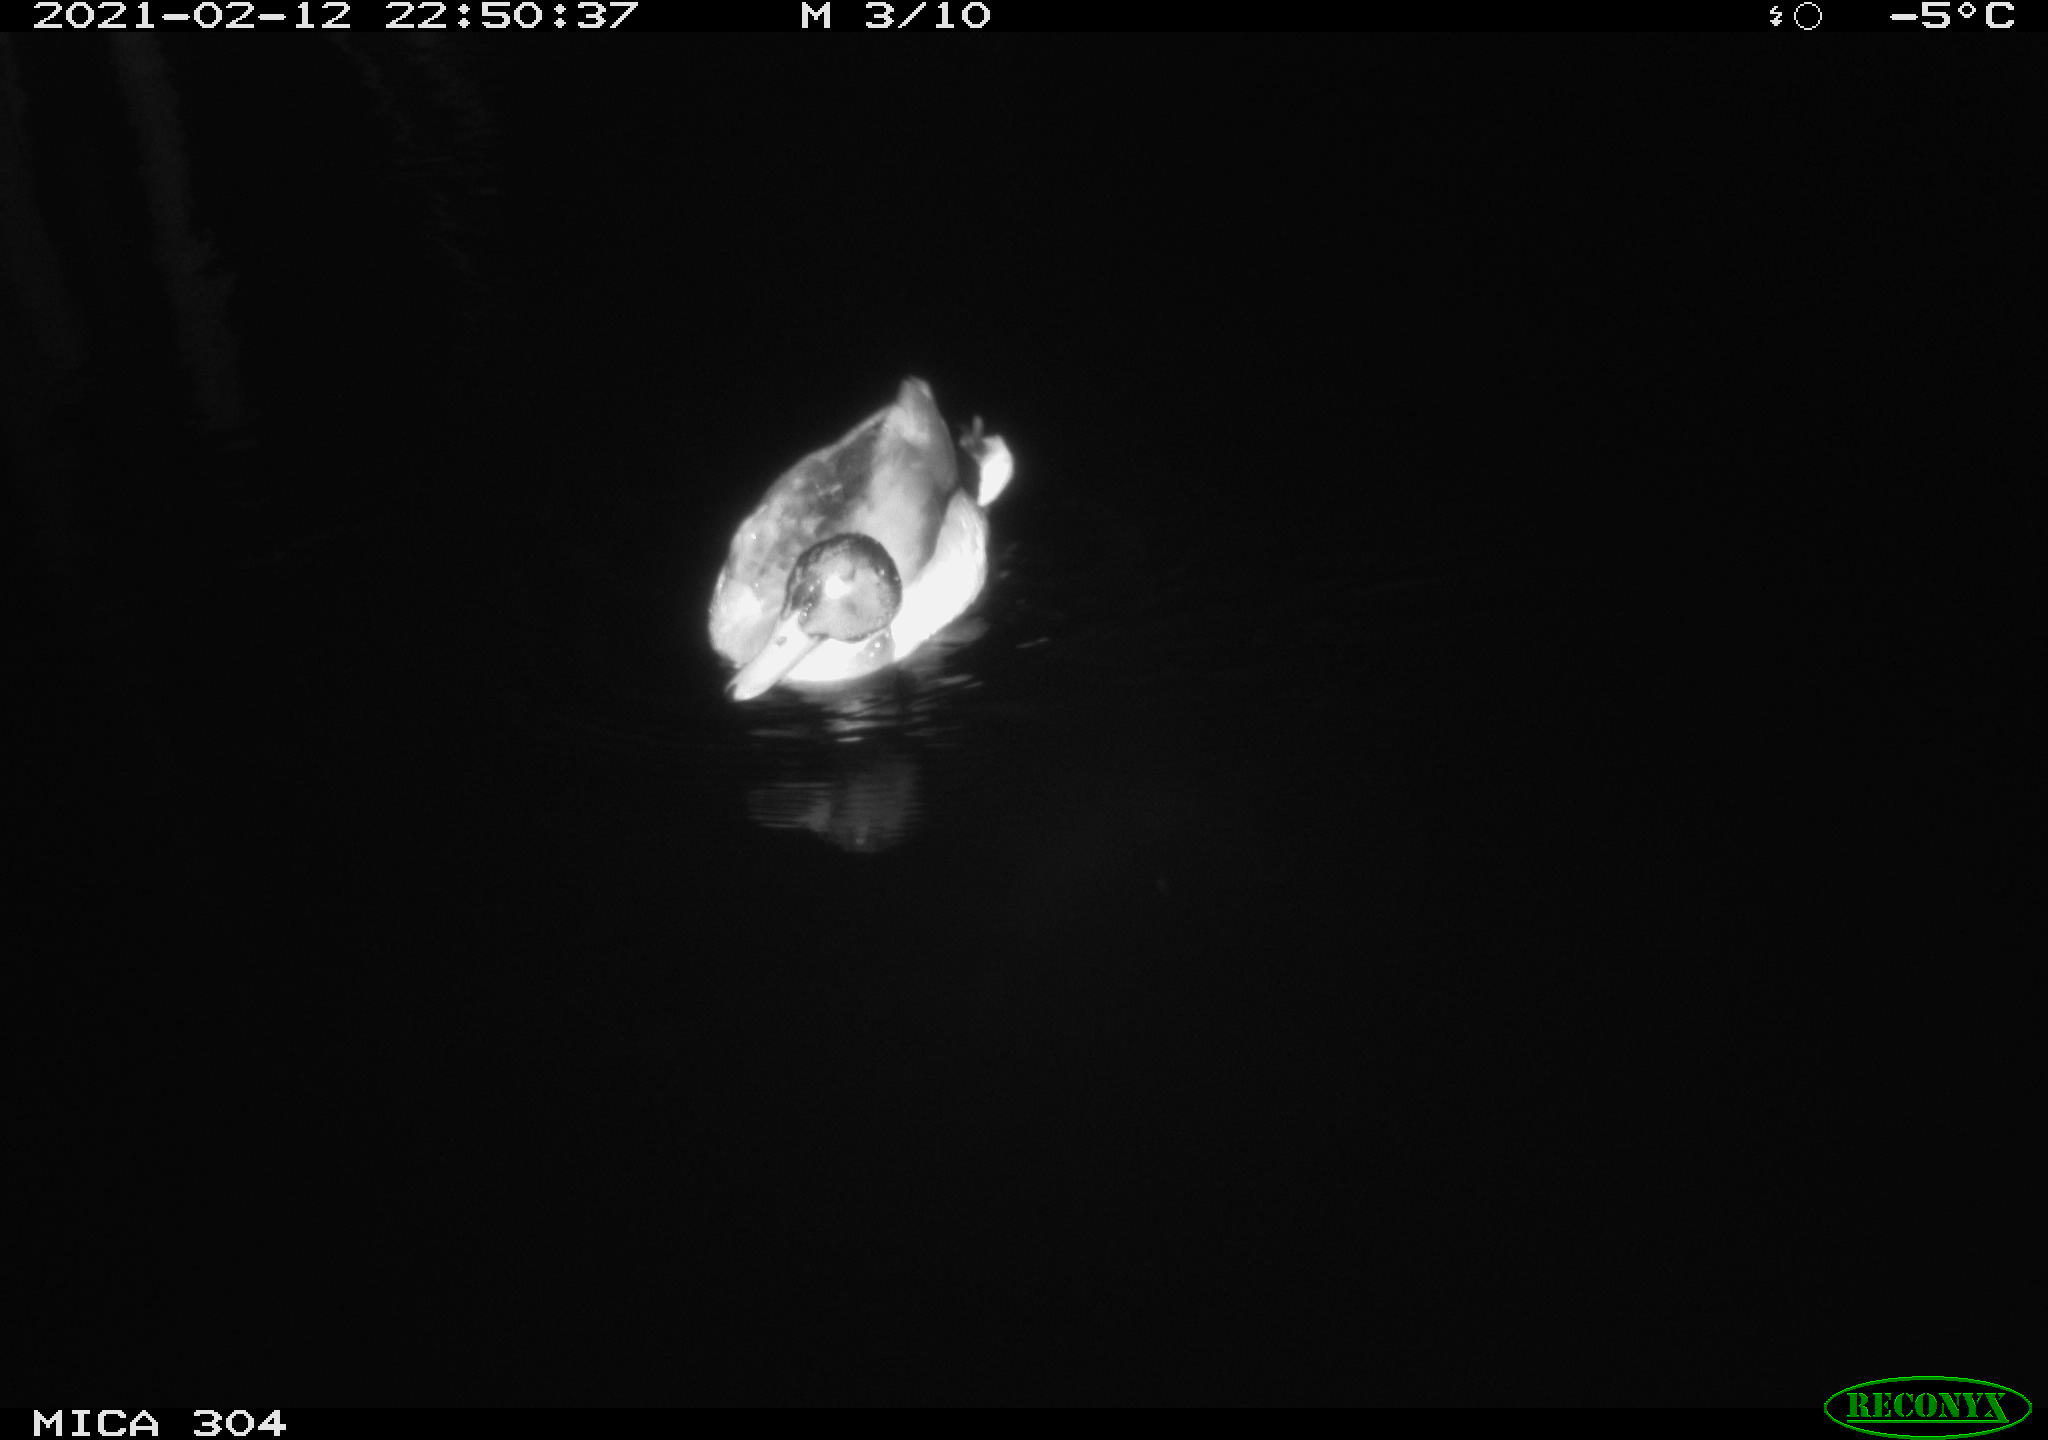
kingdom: Animalia
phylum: Chordata
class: Aves
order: Anseriformes
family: Anatidae
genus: Anas
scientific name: Anas platyrhynchos
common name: Mallard
